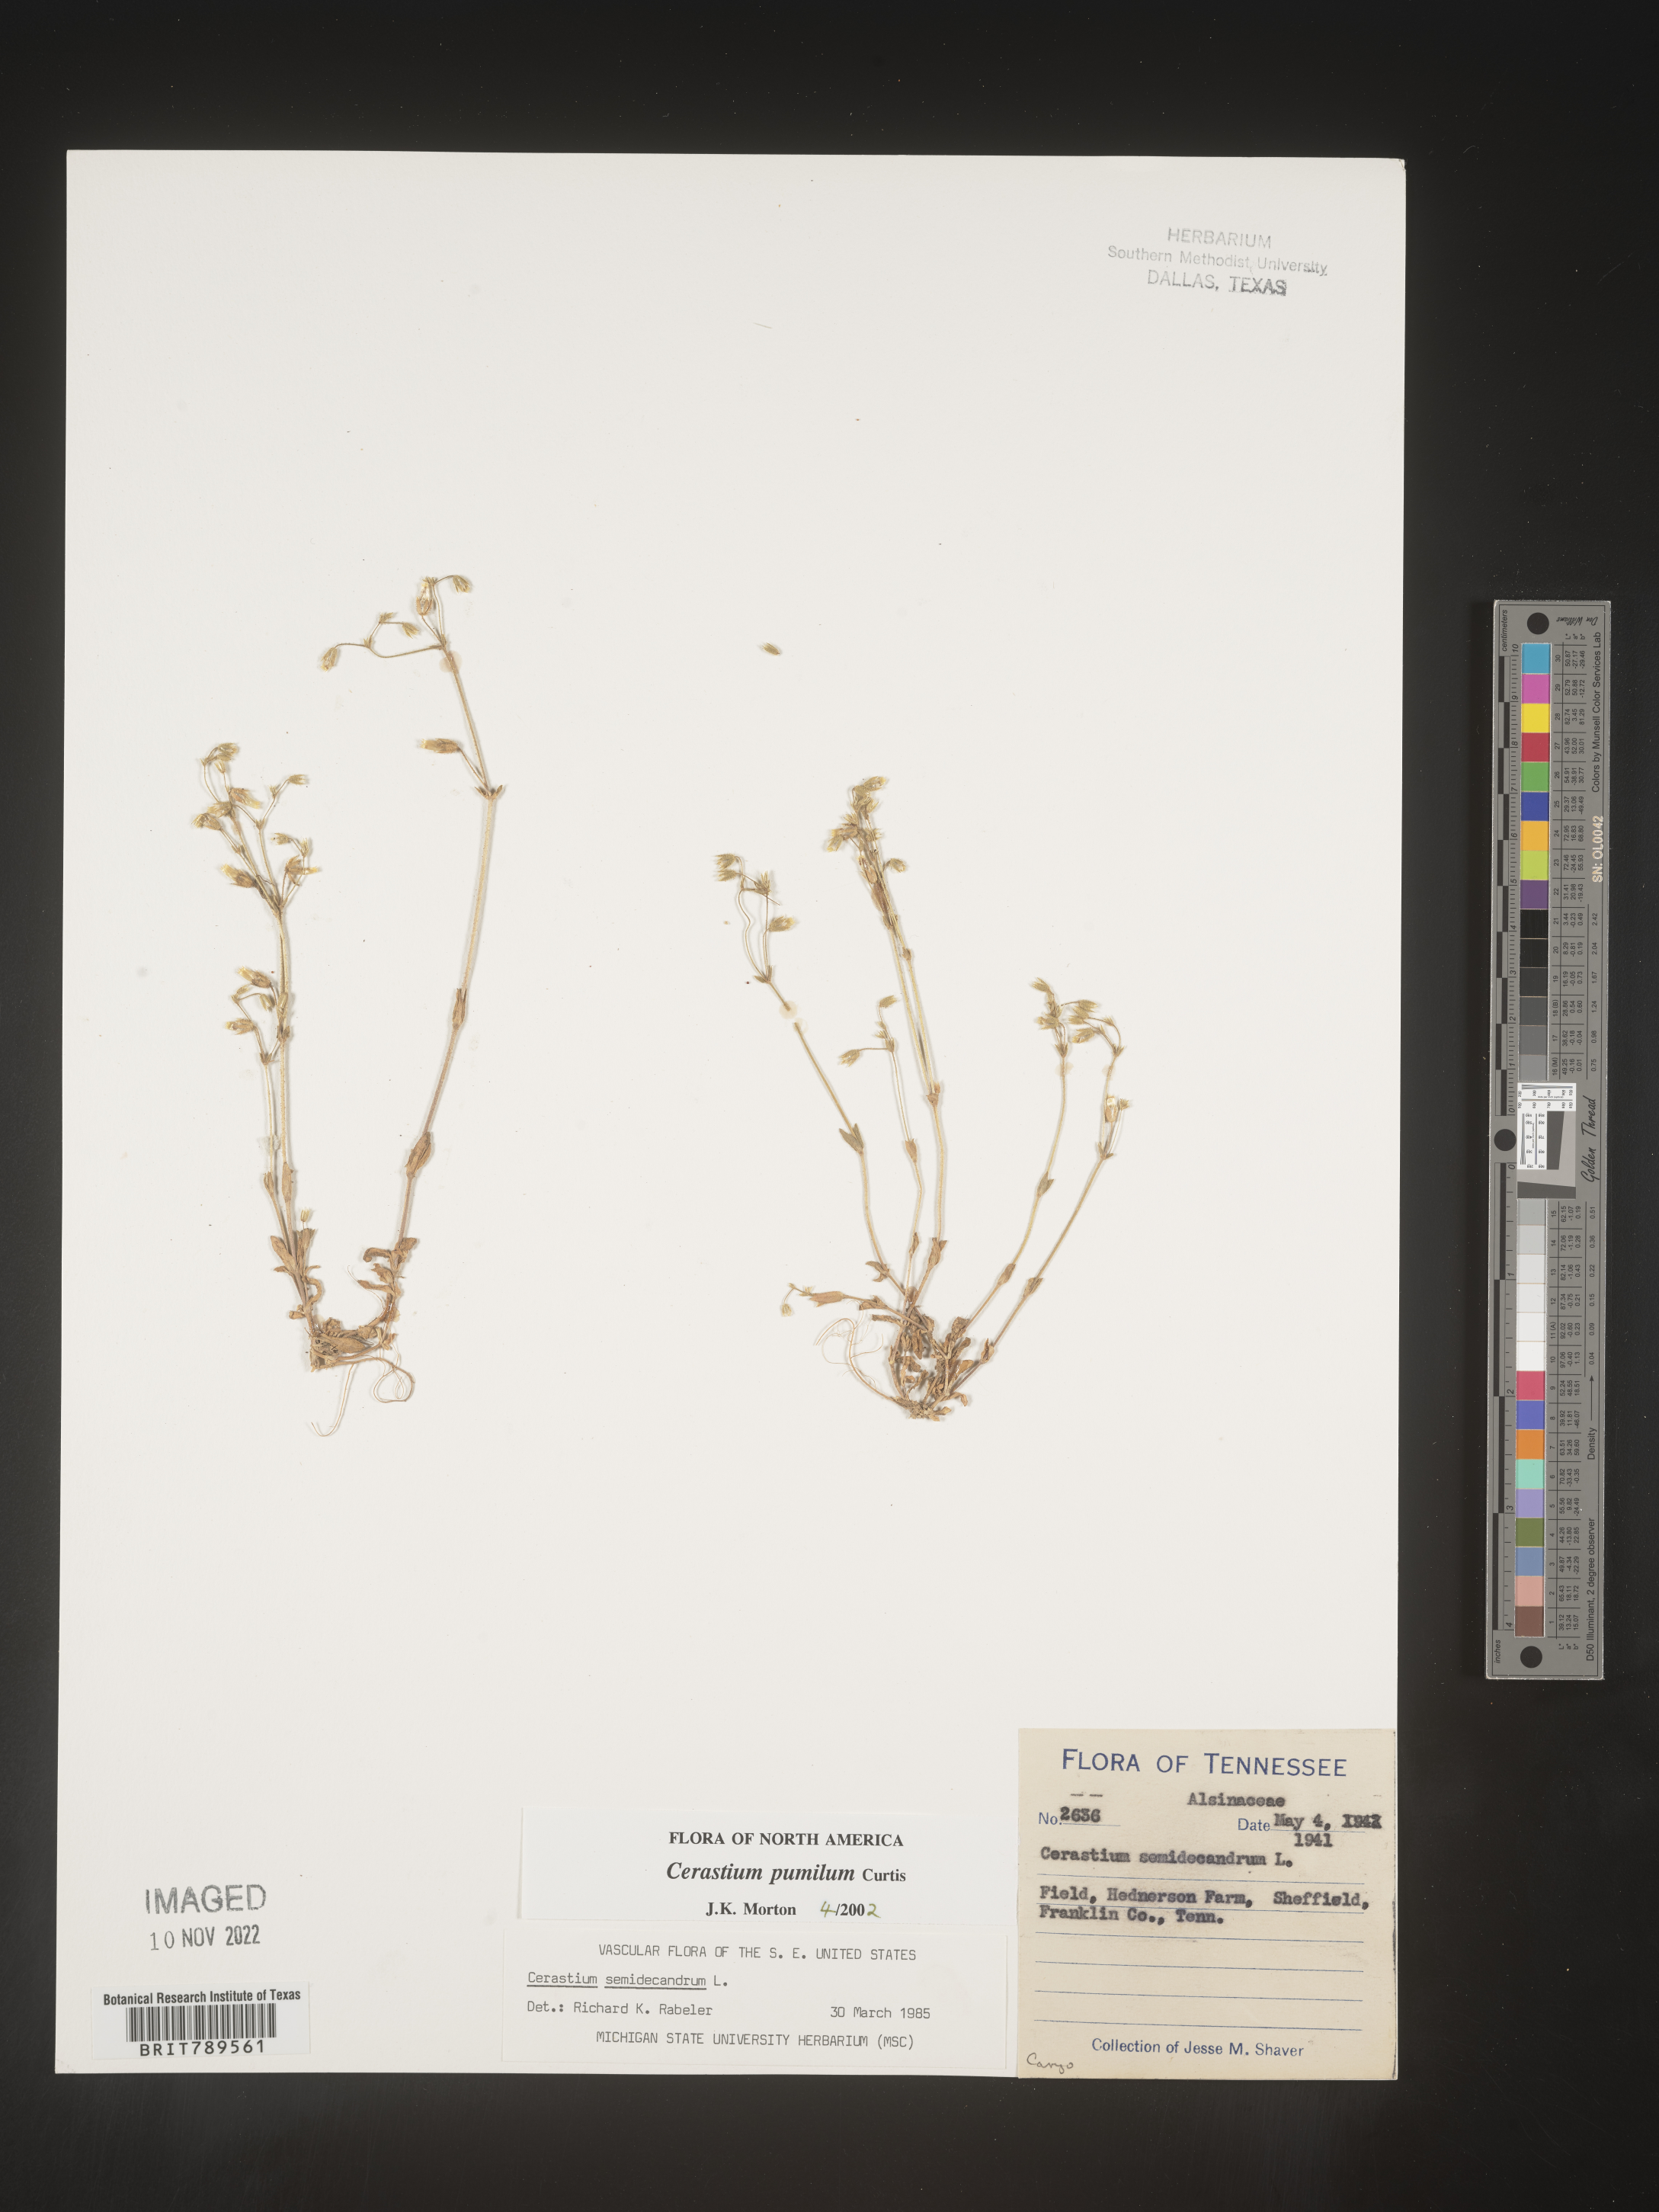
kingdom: Plantae
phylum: Tracheophyta
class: Magnoliopsida
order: Caryophyllales
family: Caryophyllaceae
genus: Cerastium
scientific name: Cerastium pumilum
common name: Dwarf mouse-ear
